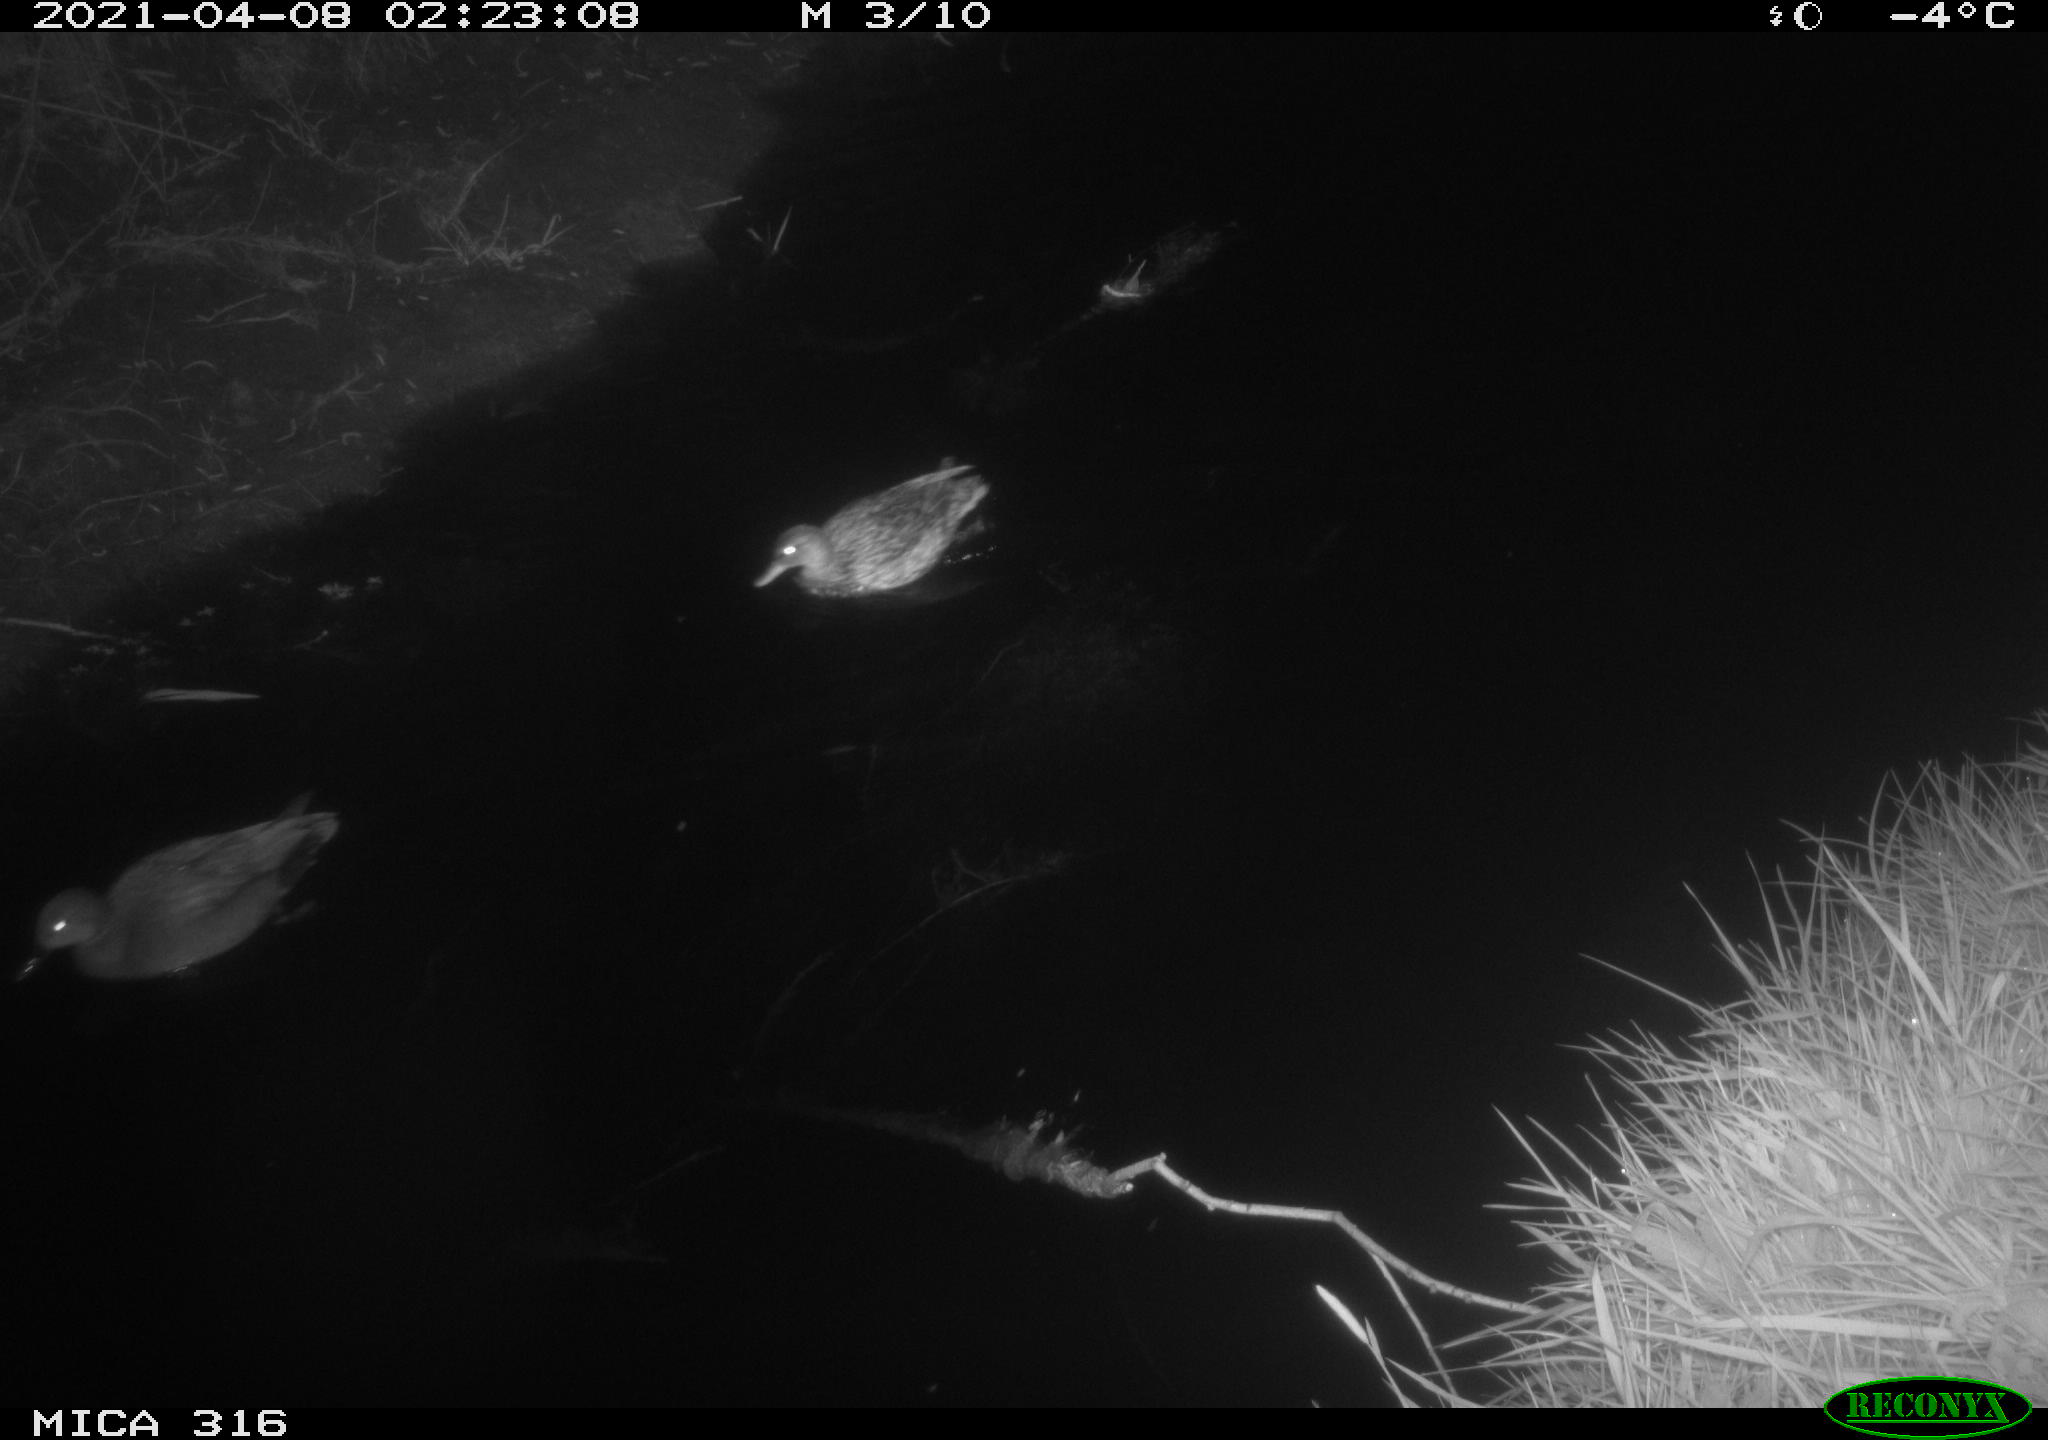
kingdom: Animalia
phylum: Chordata
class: Aves
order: Gruiformes
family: Rallidae
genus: Gallinula
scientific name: Gallinula chloropus
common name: Common moorhen
